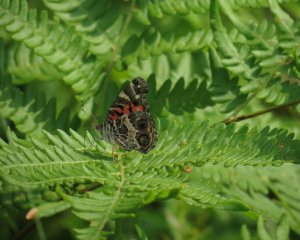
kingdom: Animalia
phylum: Arthropoda
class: Insecta
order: Lepidoptera
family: Nymphalidae
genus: Vanessa
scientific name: Vanessa virginiensis
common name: American Lady
